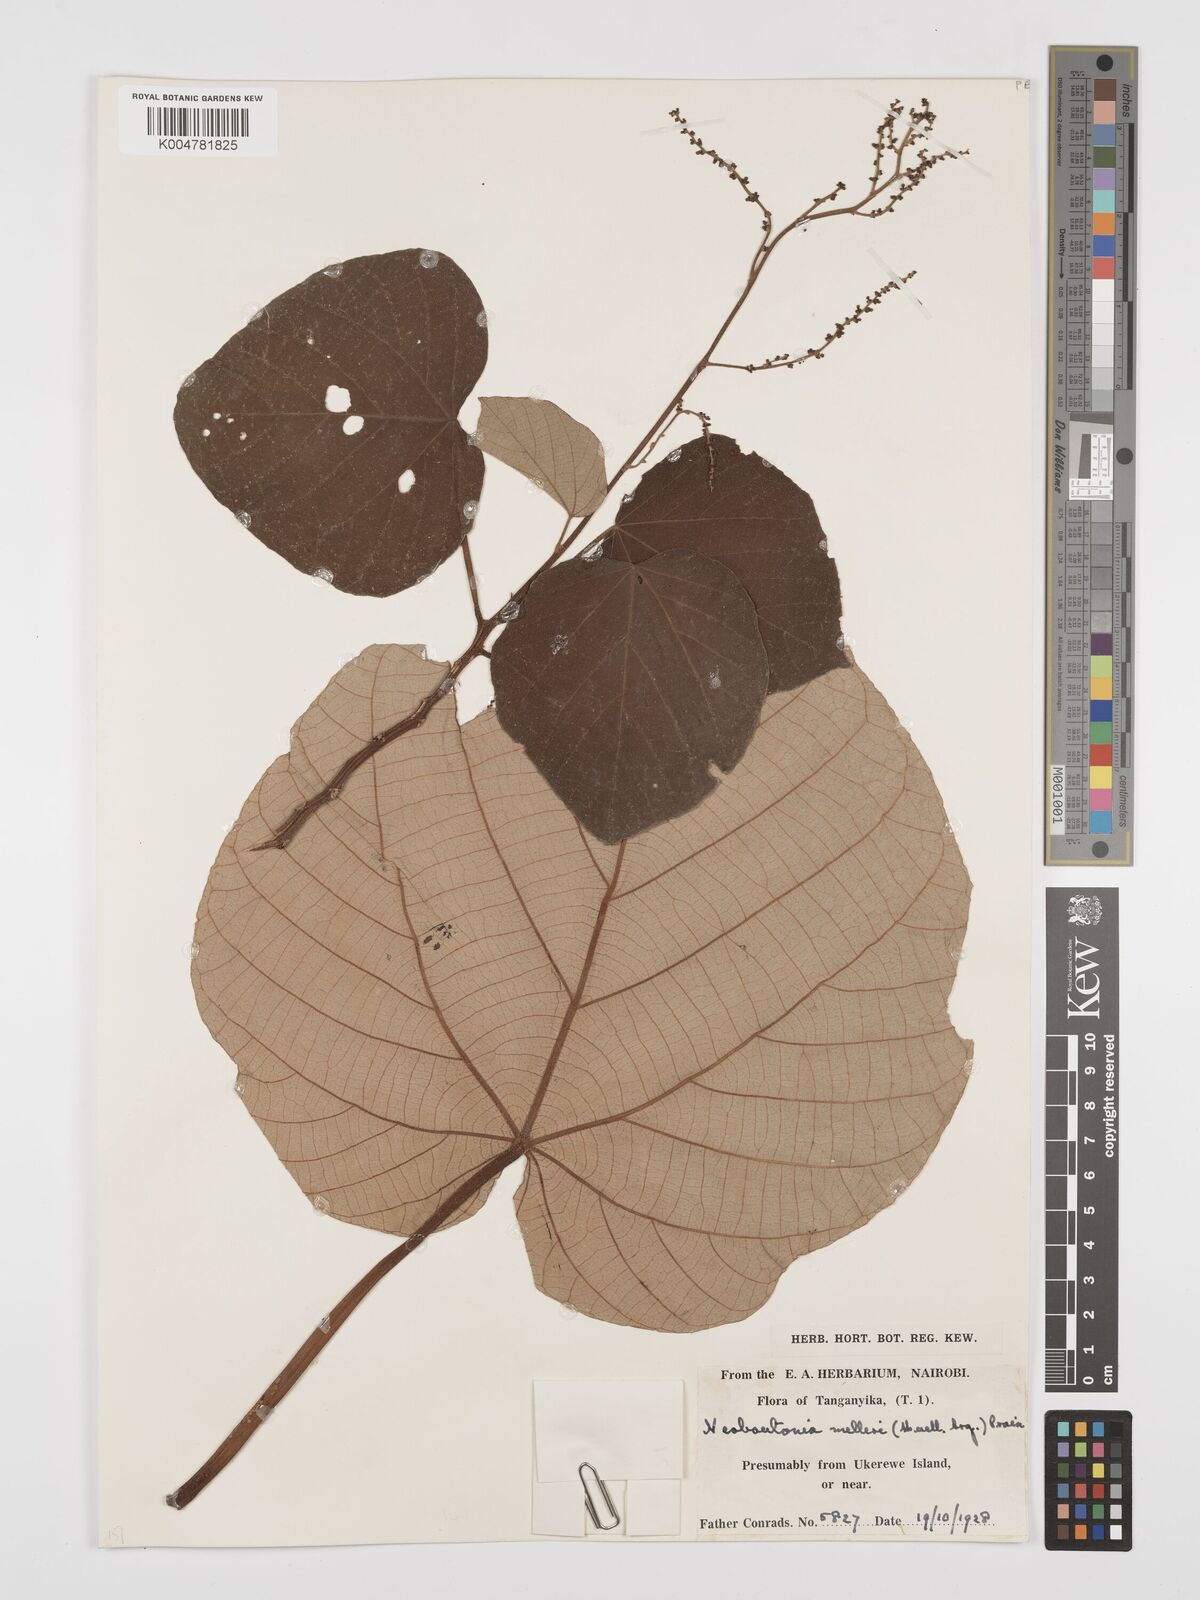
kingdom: Plantae
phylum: Tracheophyta
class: Magnoliopsida
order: Malpighiales
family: Euphorbiaceae
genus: Neoboutonia
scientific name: Neoboutonia melleri
